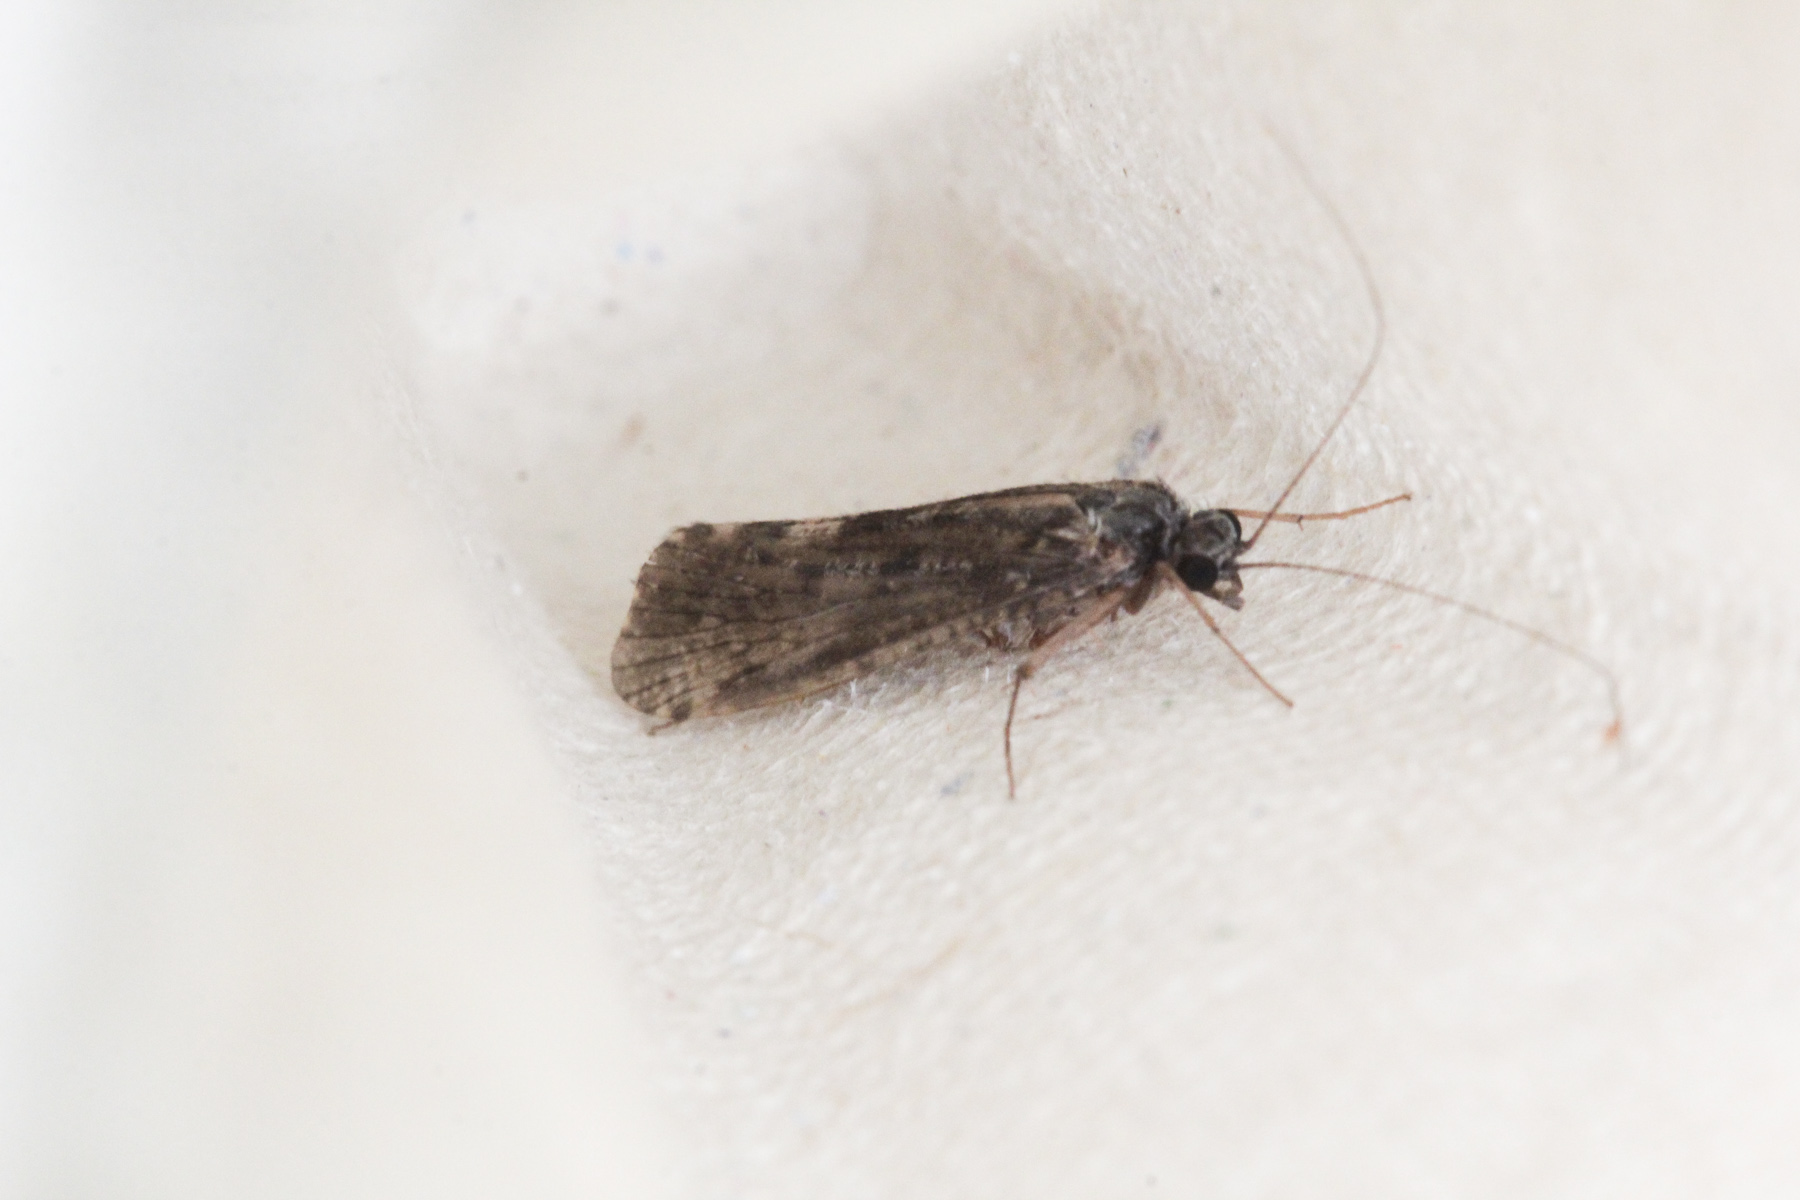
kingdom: Animalia
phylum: Arthropoda
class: Insecta
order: Trichoptera
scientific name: Trichoptera
